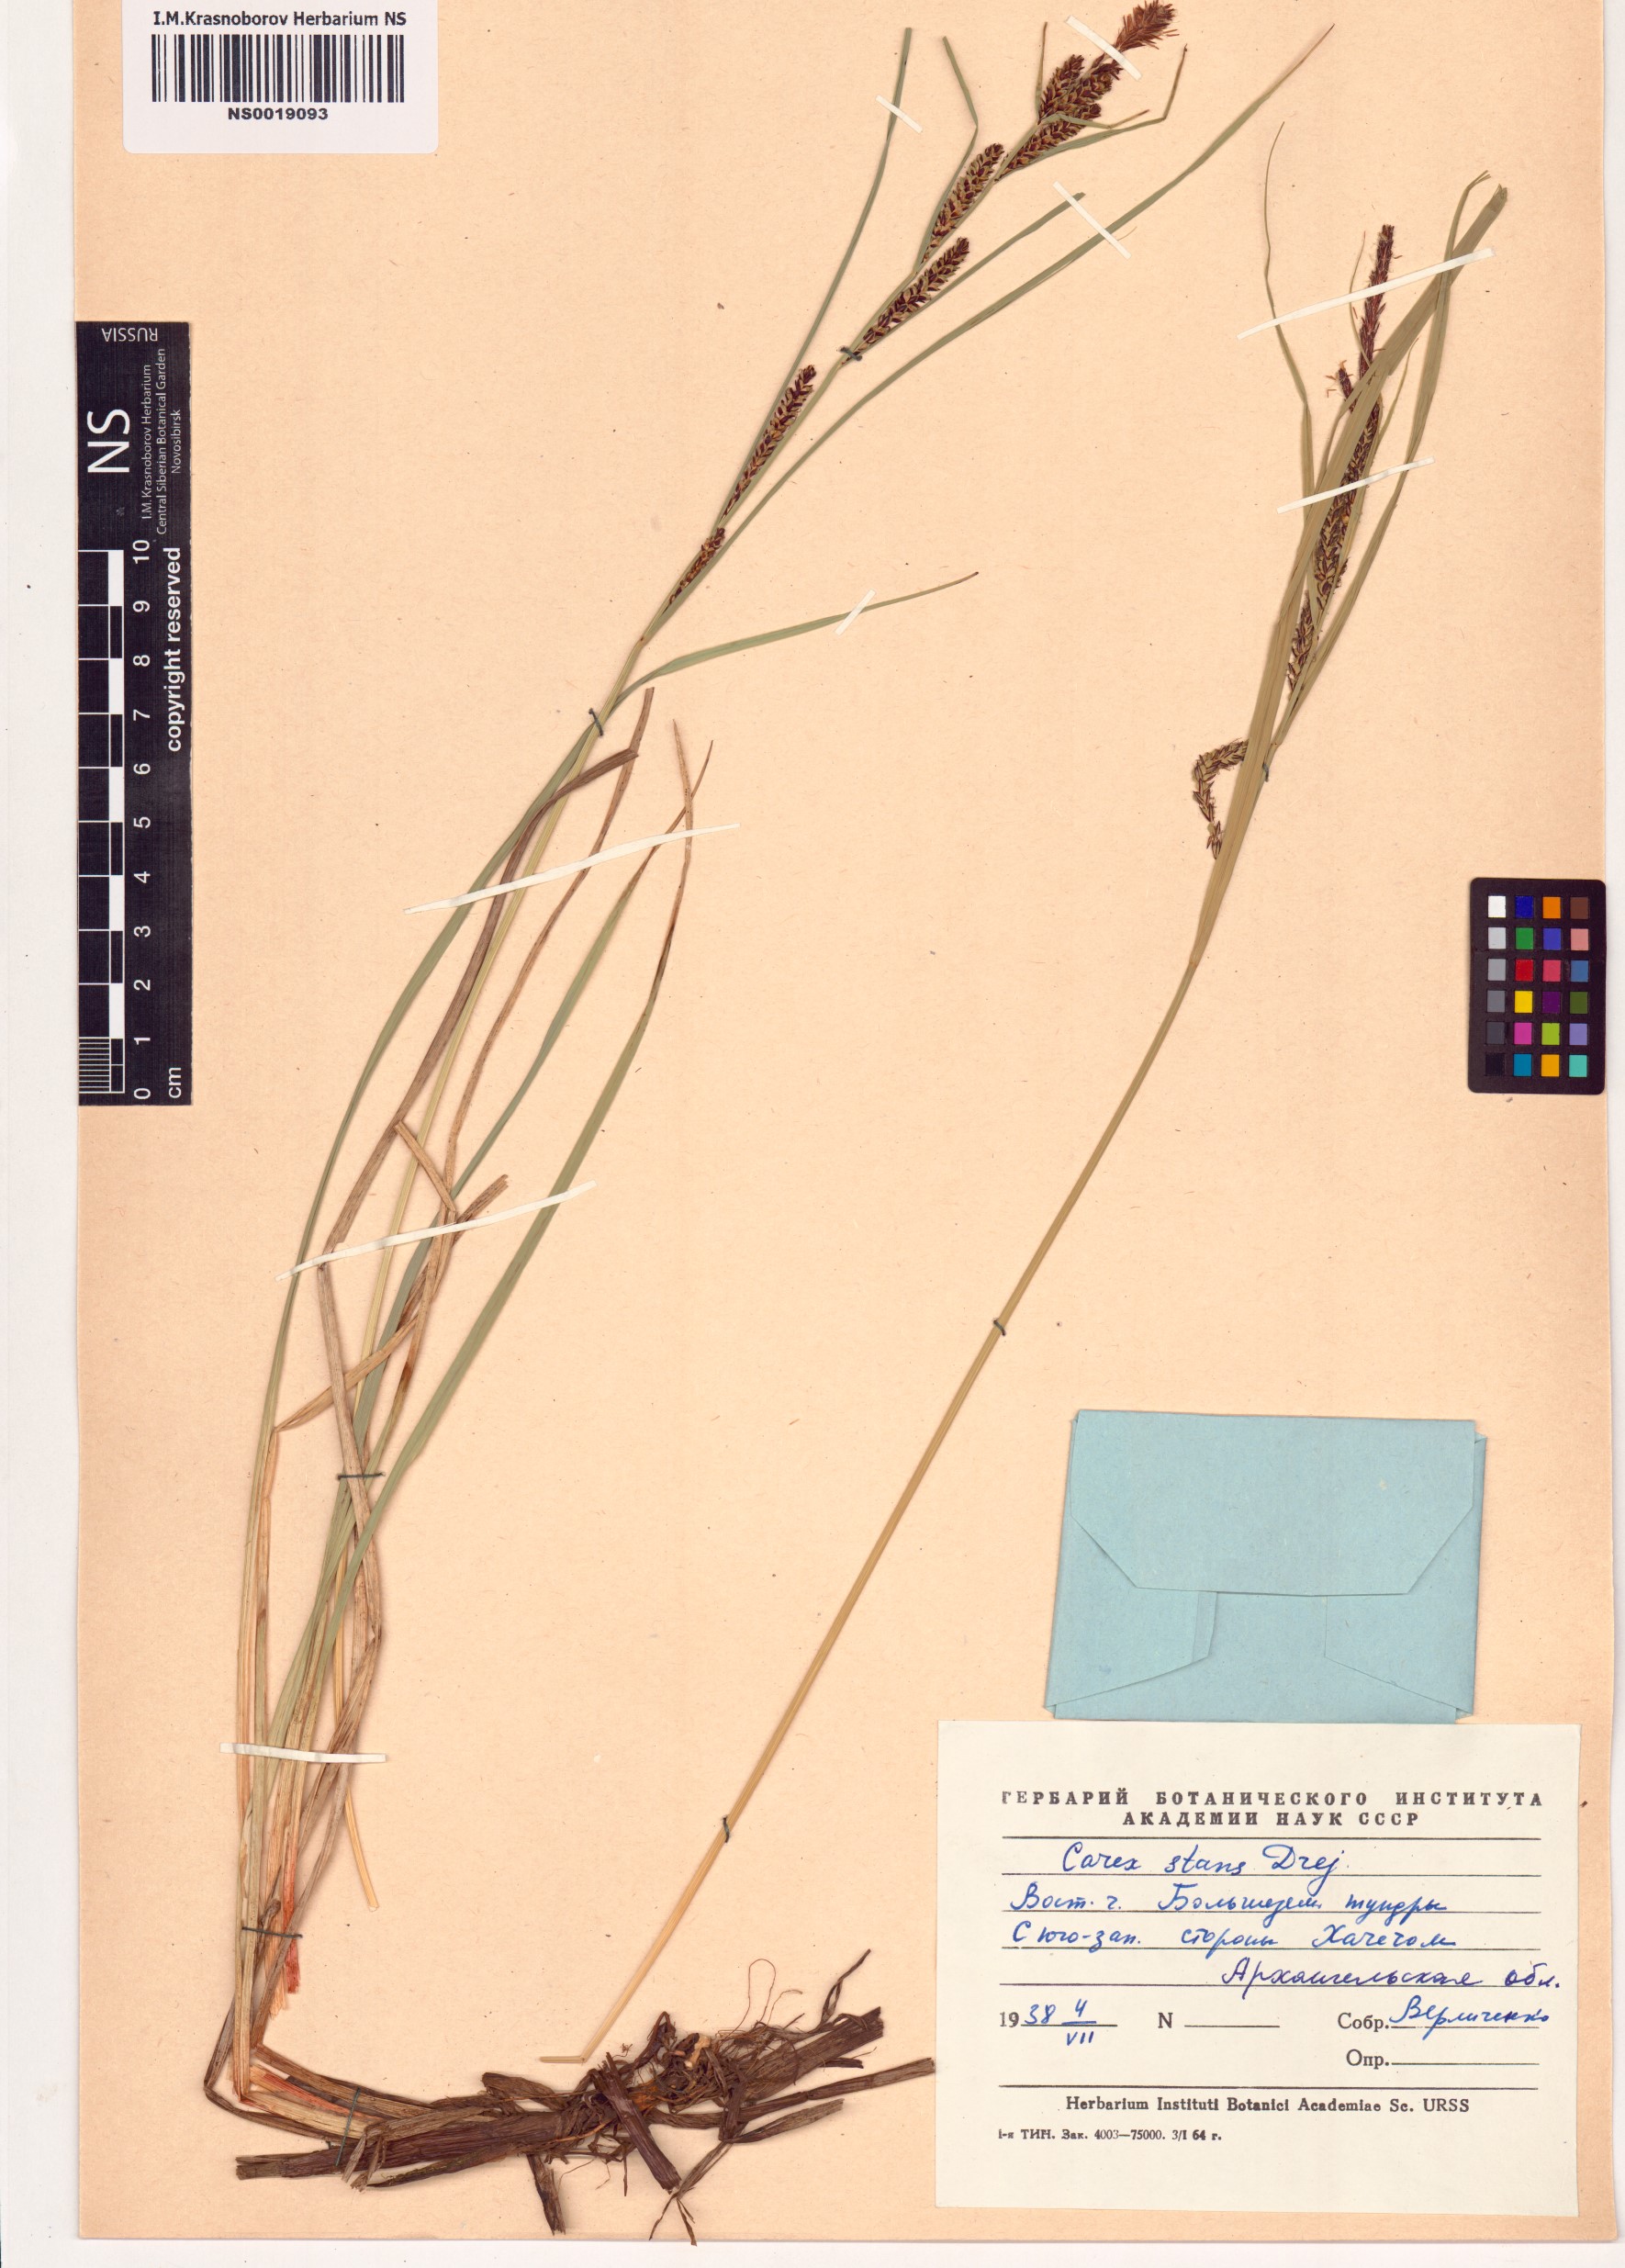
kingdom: Plantae
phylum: Tracheophyta
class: Liliopsida
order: Poales
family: Cyperaceae
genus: Carex
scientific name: Carex aquatilis
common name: Water sedge
